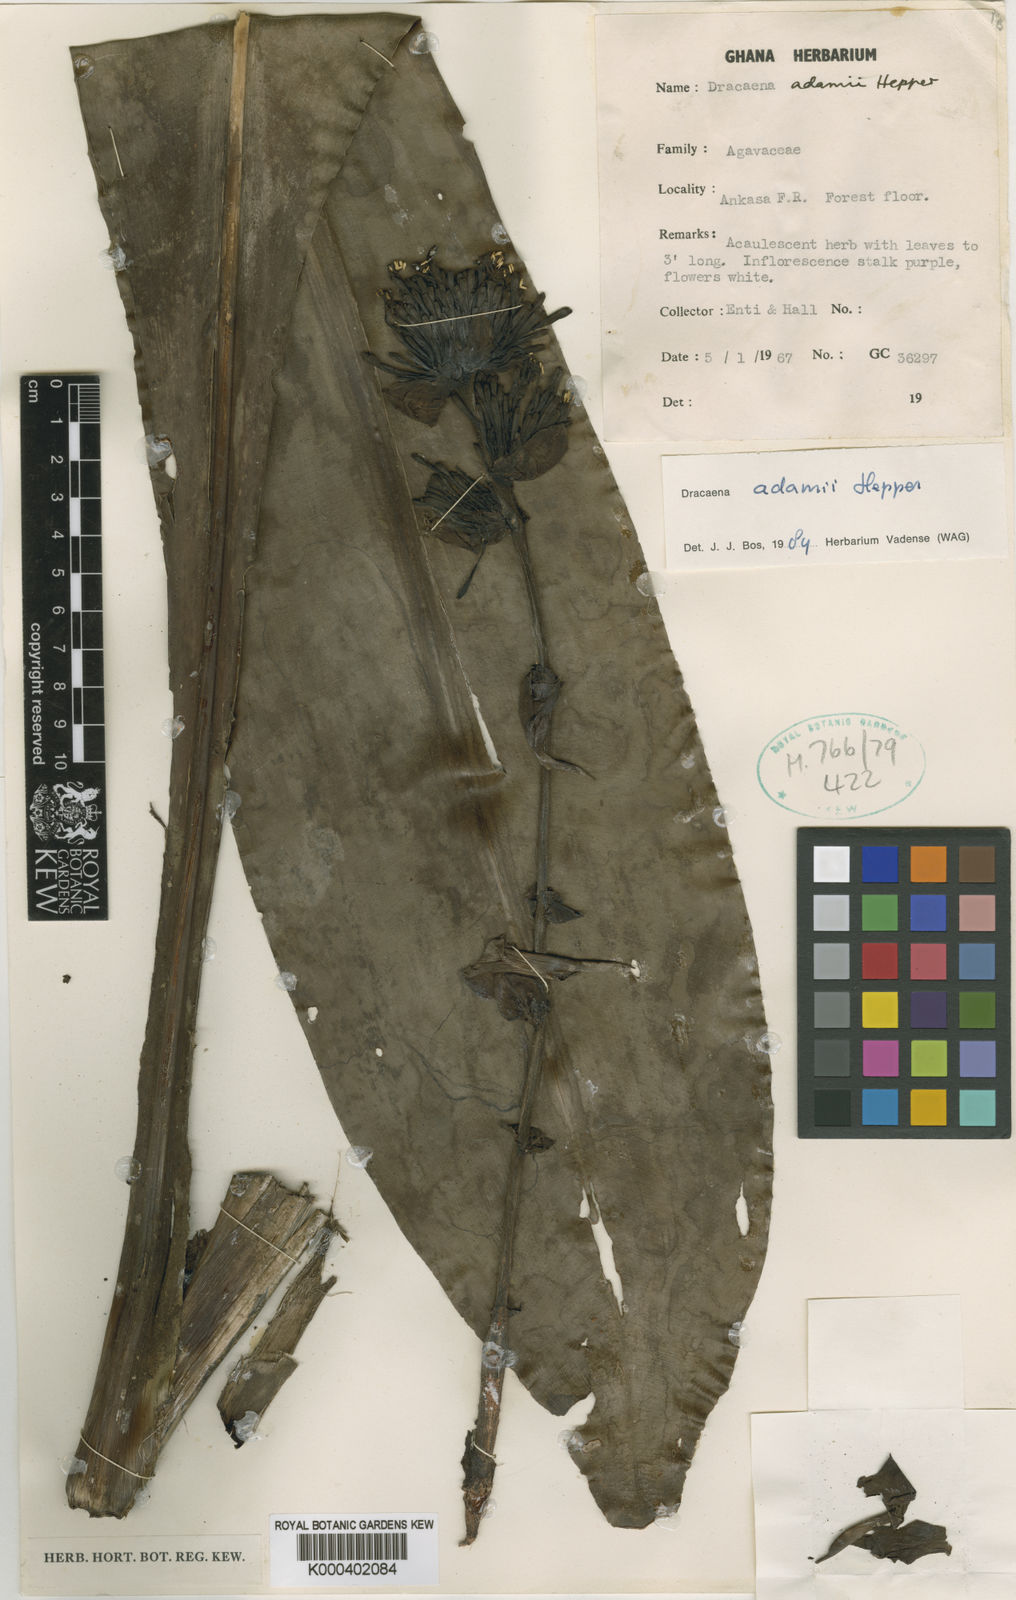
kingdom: Plantae
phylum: Tracheophyta
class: Liliopsida
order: Asparagales
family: Asparagaceae
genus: Dracaena
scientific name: Dracaena adamii
